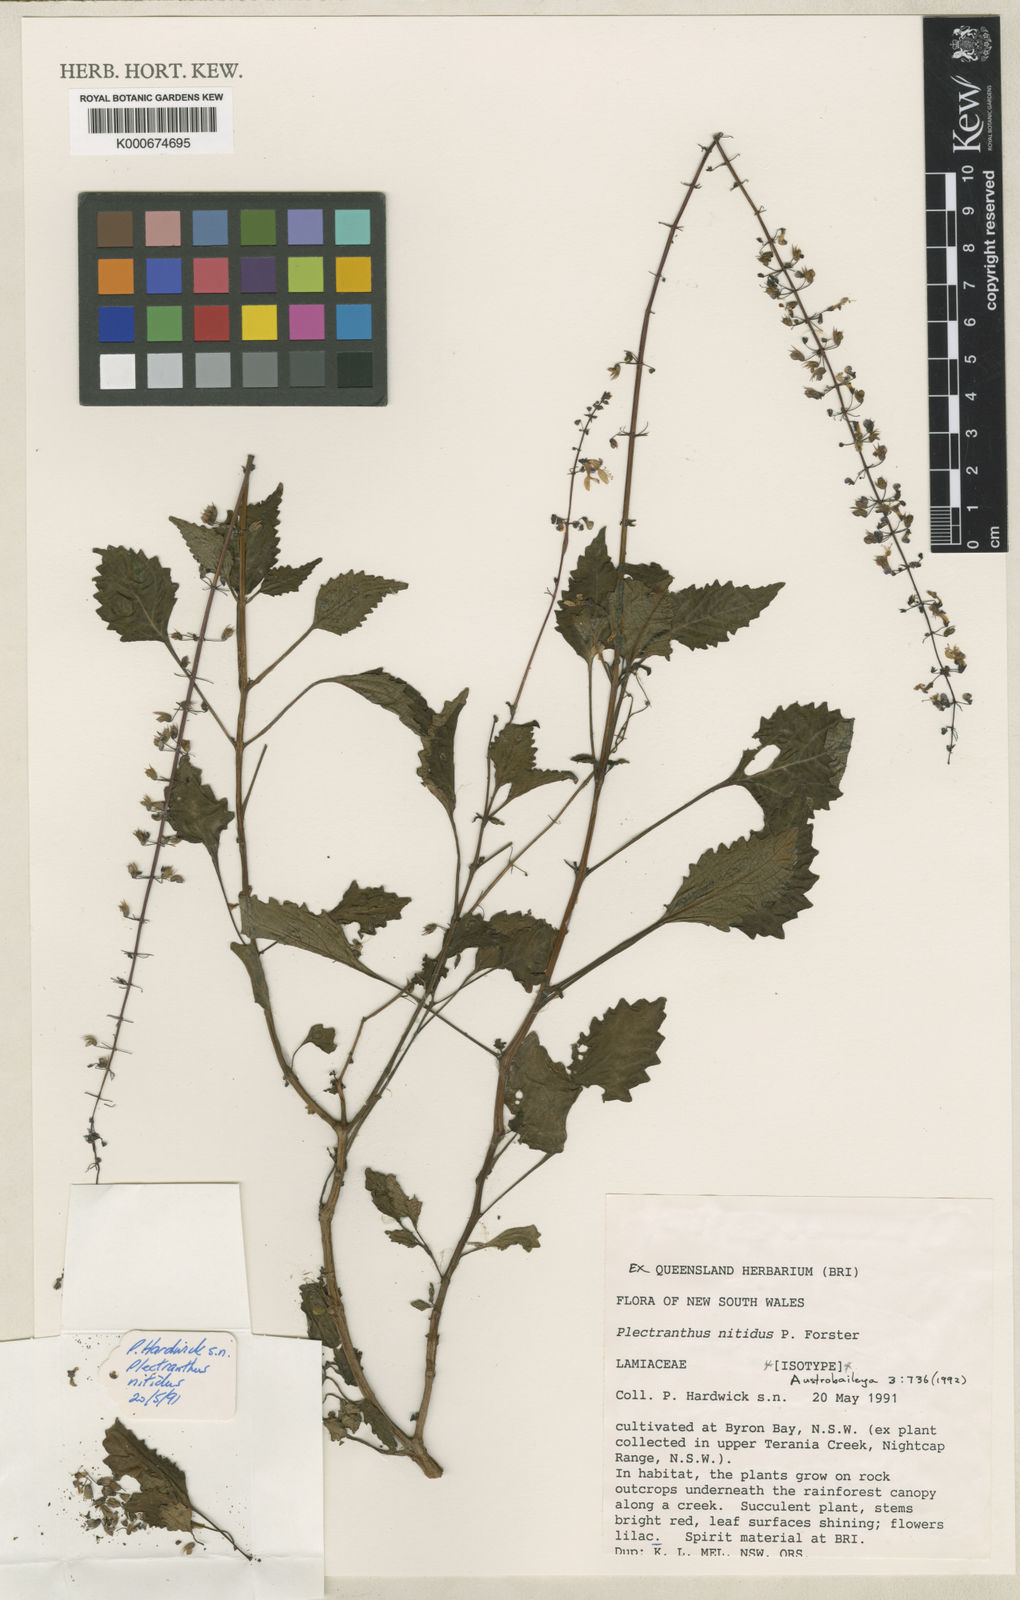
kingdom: Plantae
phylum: Tracheophyta
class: Magnoliopsida
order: Lamiales
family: Lamiaceae
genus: Coleus
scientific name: Coleus nitidus
